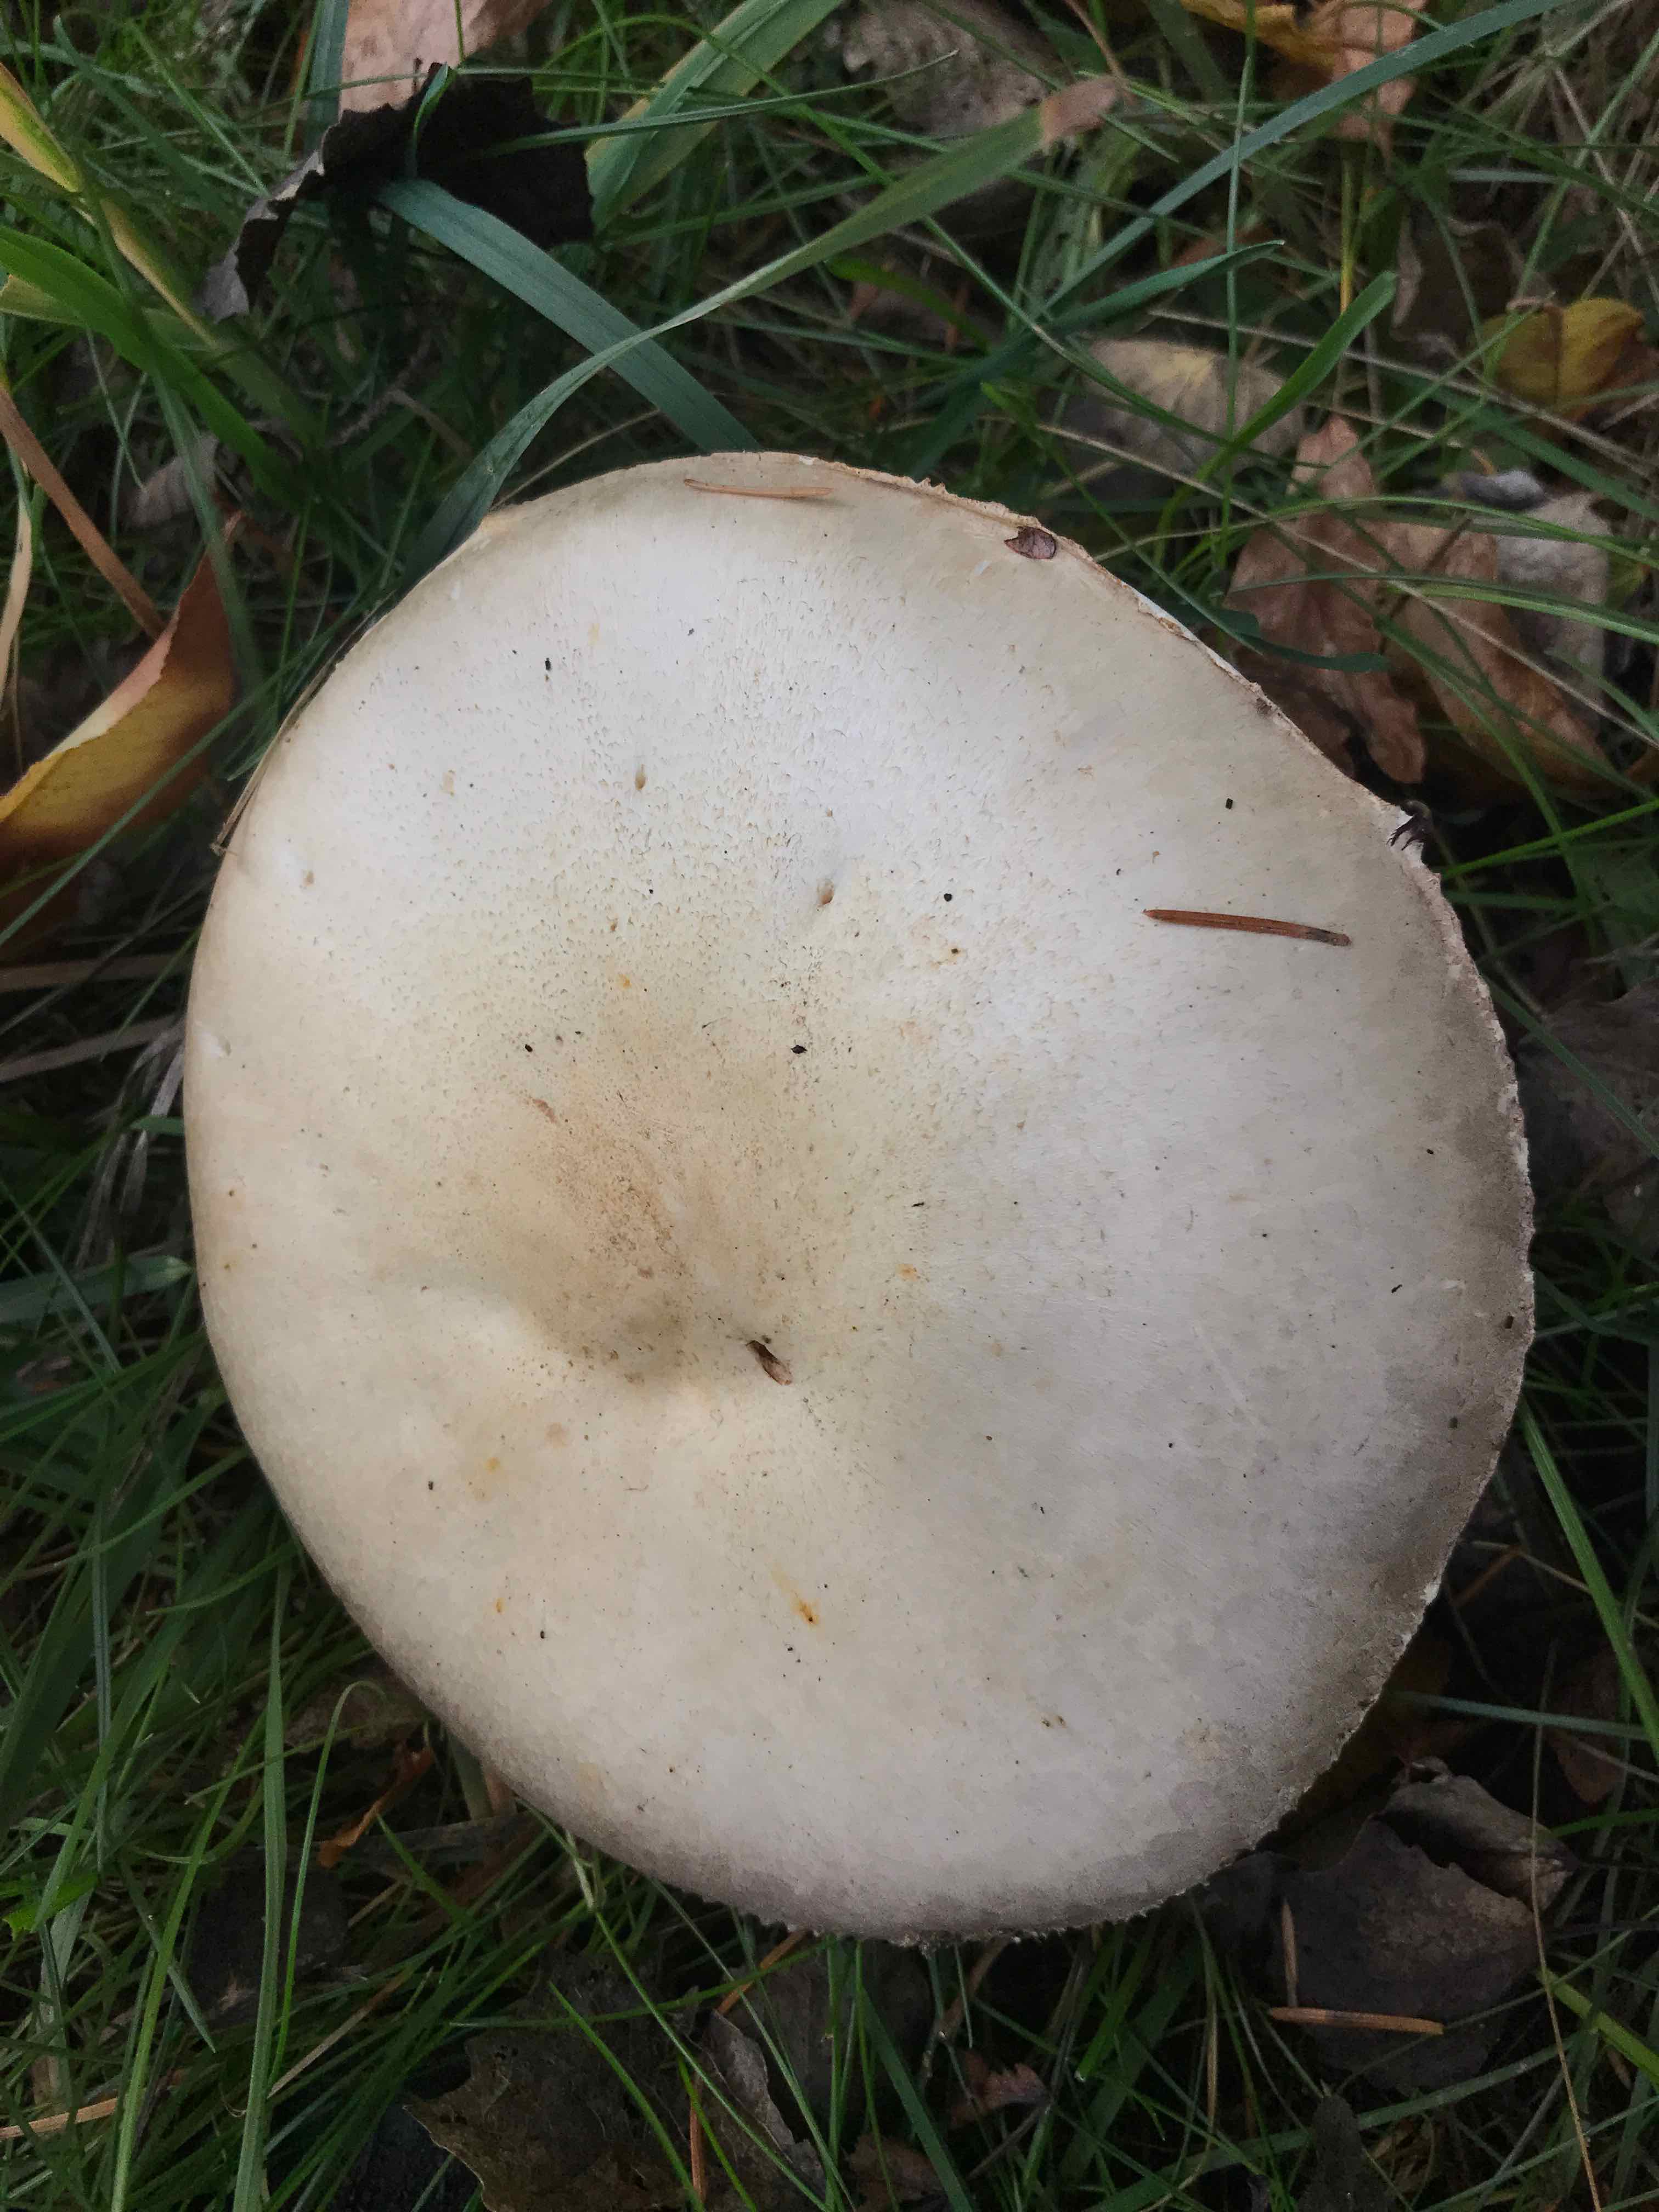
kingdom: Fungi
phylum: Basidiomycota
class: Agaricomycetes
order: Agaricales
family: Agaricaceae
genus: Agaricus
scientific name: Agaricus
